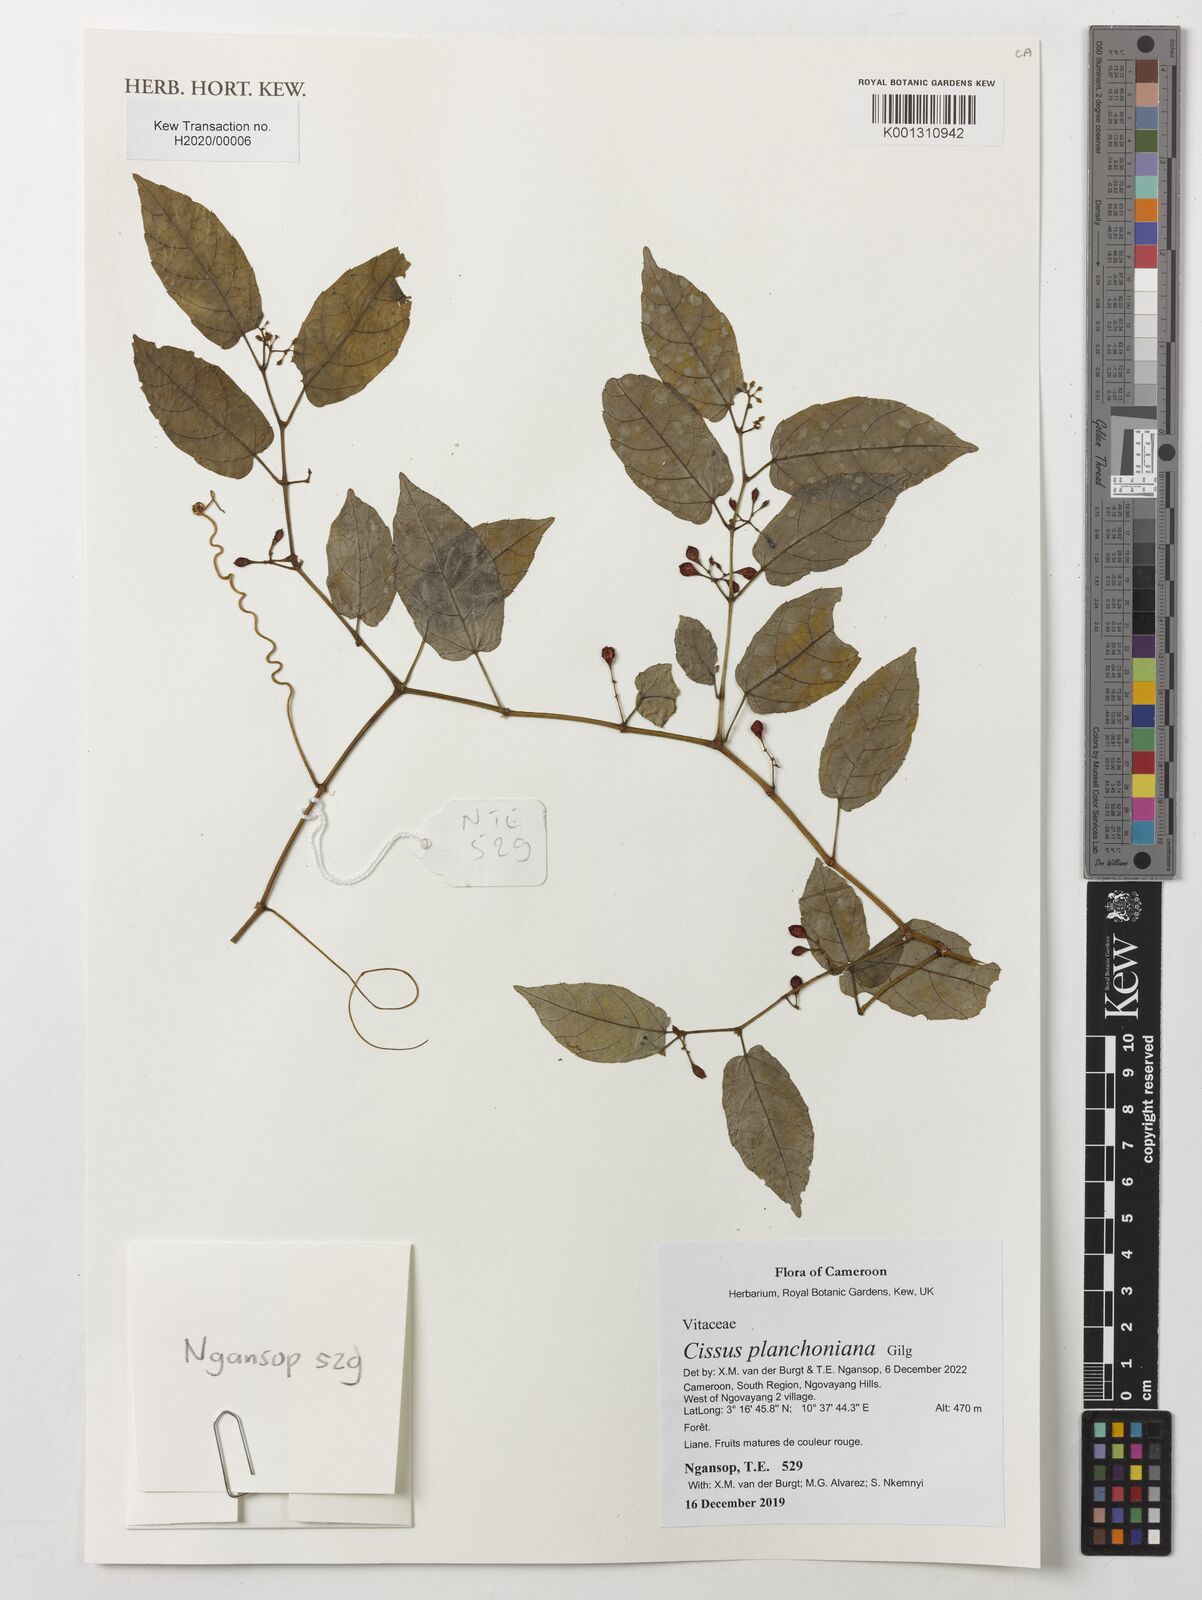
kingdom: Plantae
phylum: Tracheophyta
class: Magnoliopsida
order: Vitales
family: Vitaceae
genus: Cissus
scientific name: Cissus planchoniana
